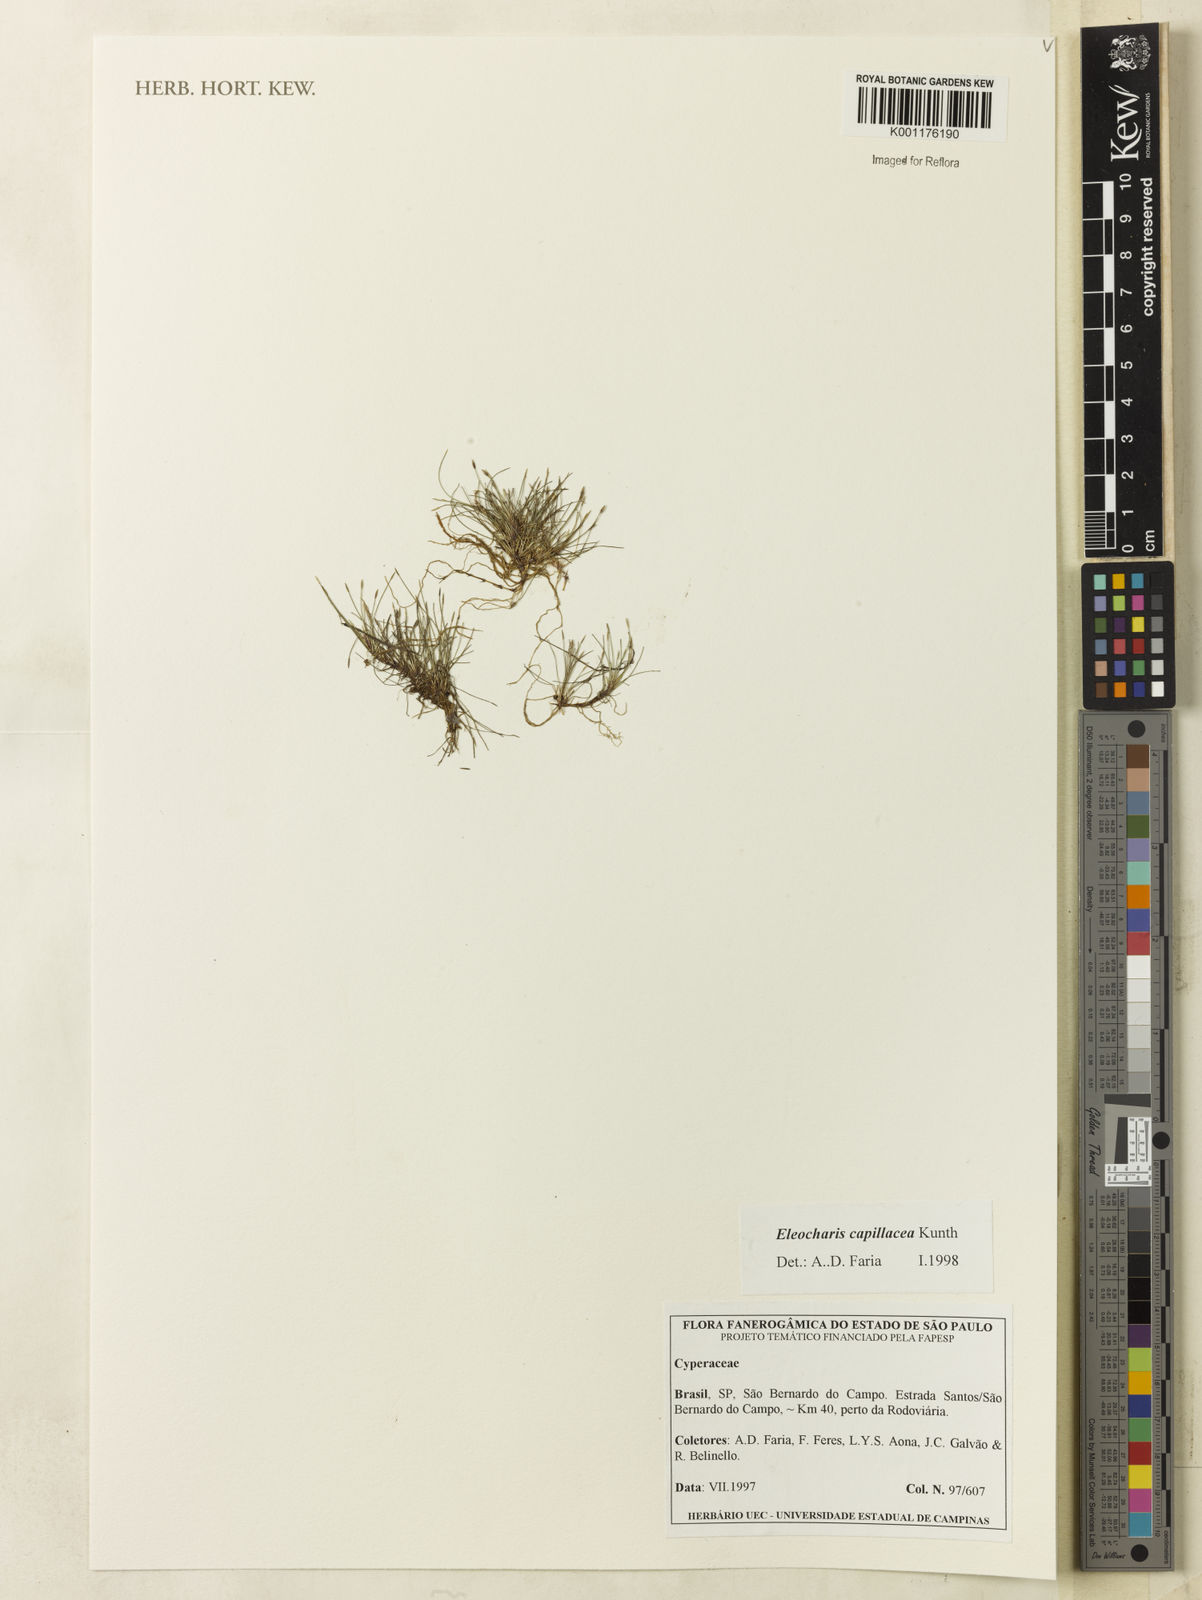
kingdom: Plantae
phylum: Tracheophyta
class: Liliopsida
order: Poales
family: Cyperaceae
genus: Eleocharis
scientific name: Eleocharis capillacea
